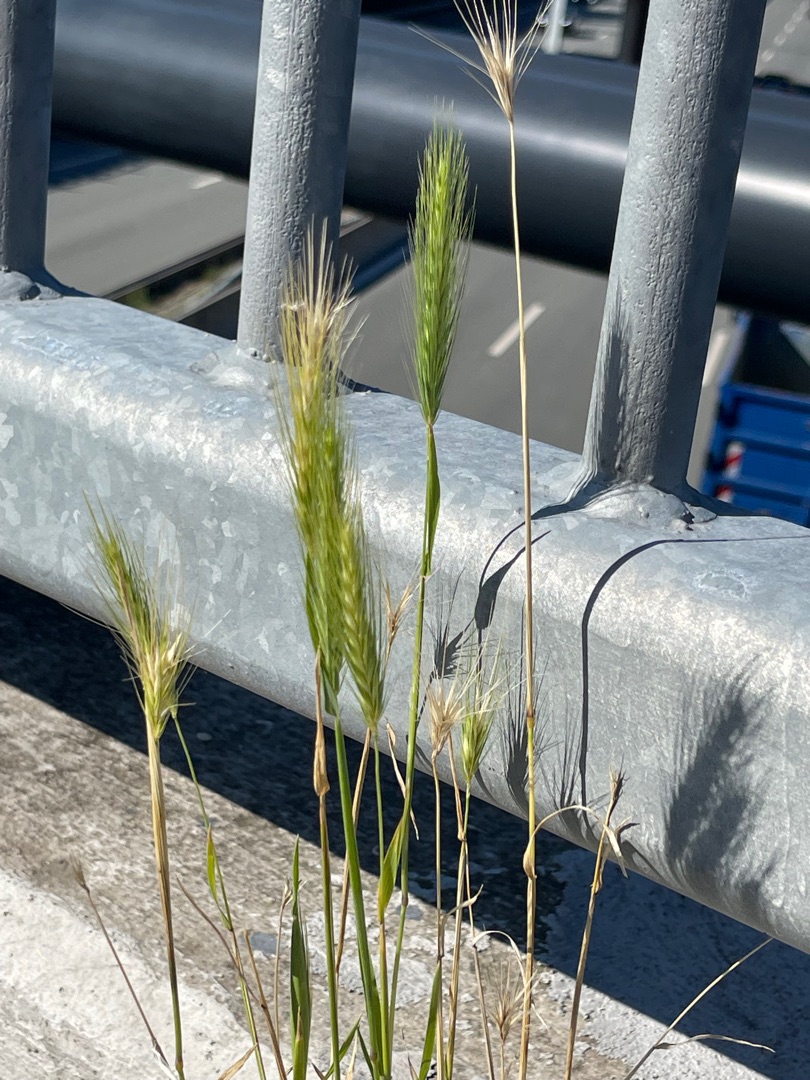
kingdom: Plantae
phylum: Tracheophyta
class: Liliopsida
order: Poales
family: Poaceae
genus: Hordeum
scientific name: Hordeum murinum
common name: Gold byg
